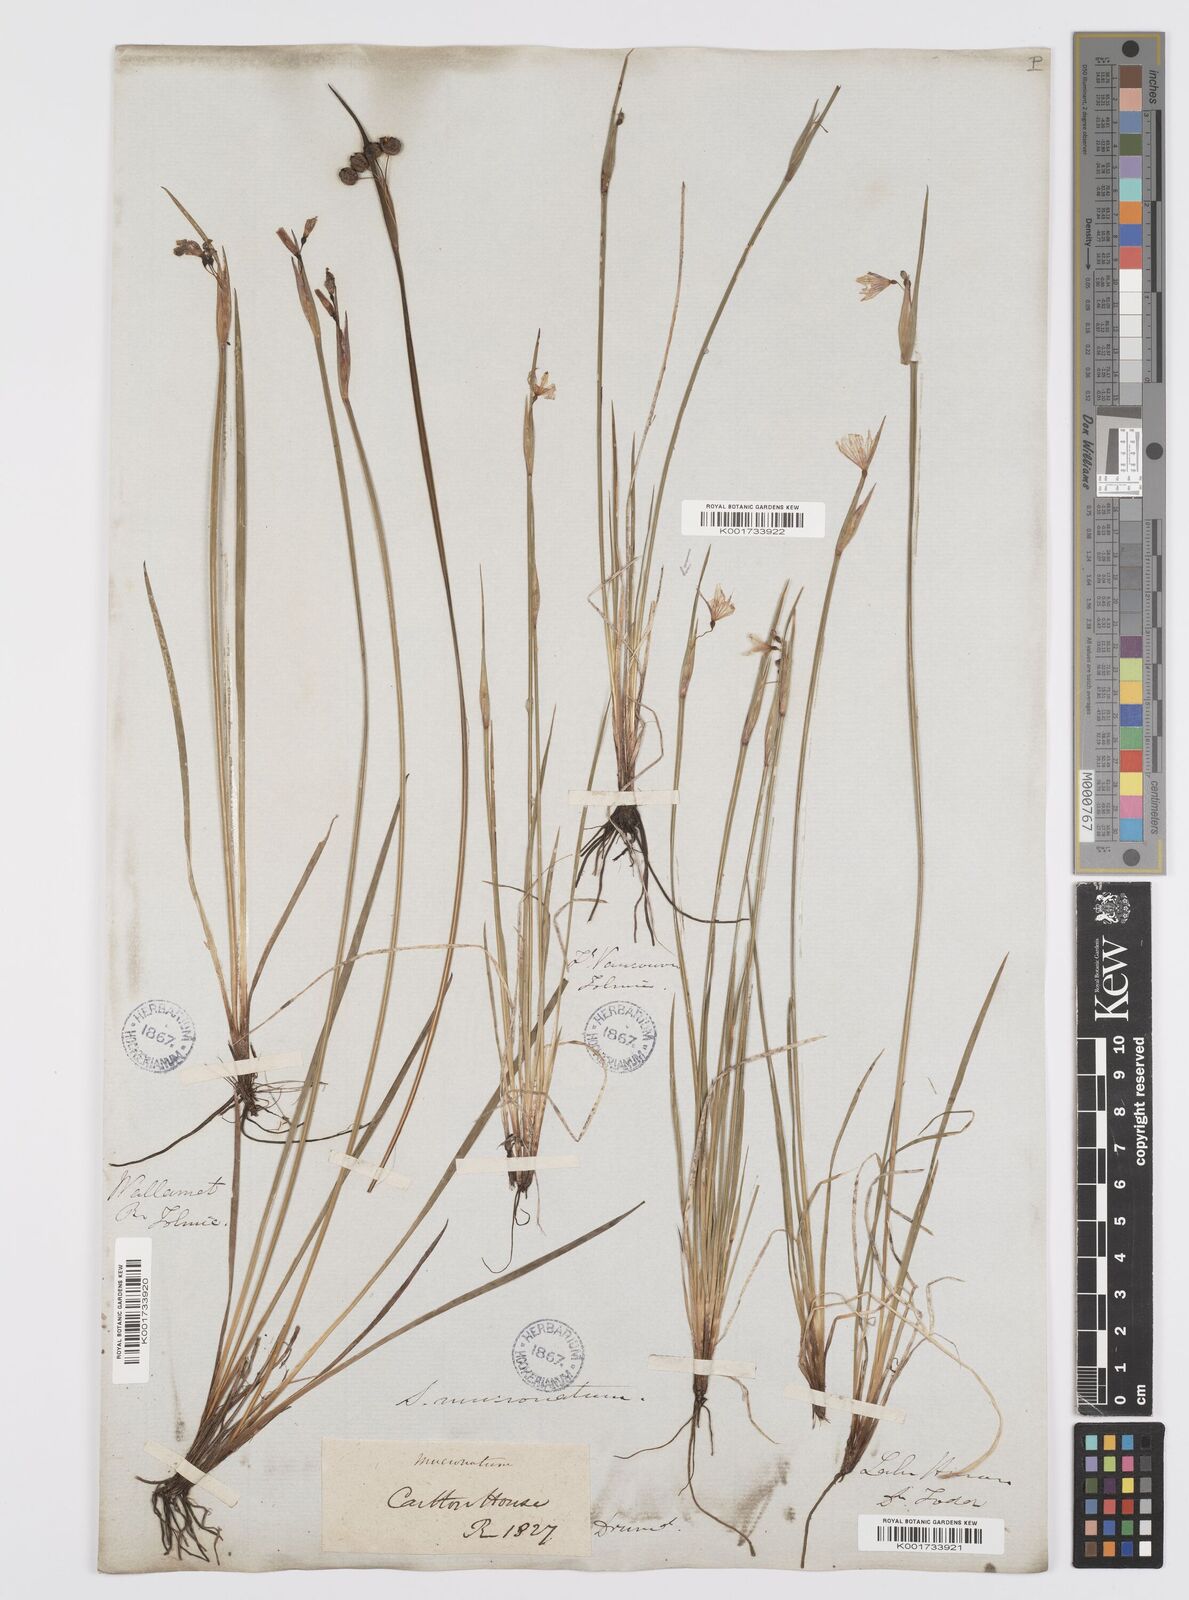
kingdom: Plantae
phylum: Tracheophyta
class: Liliopsida
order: Asparagales
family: Iridaceae
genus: Sisyrinchium
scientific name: Sisyrinchium bermudiana
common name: Blue-eyed-grass
